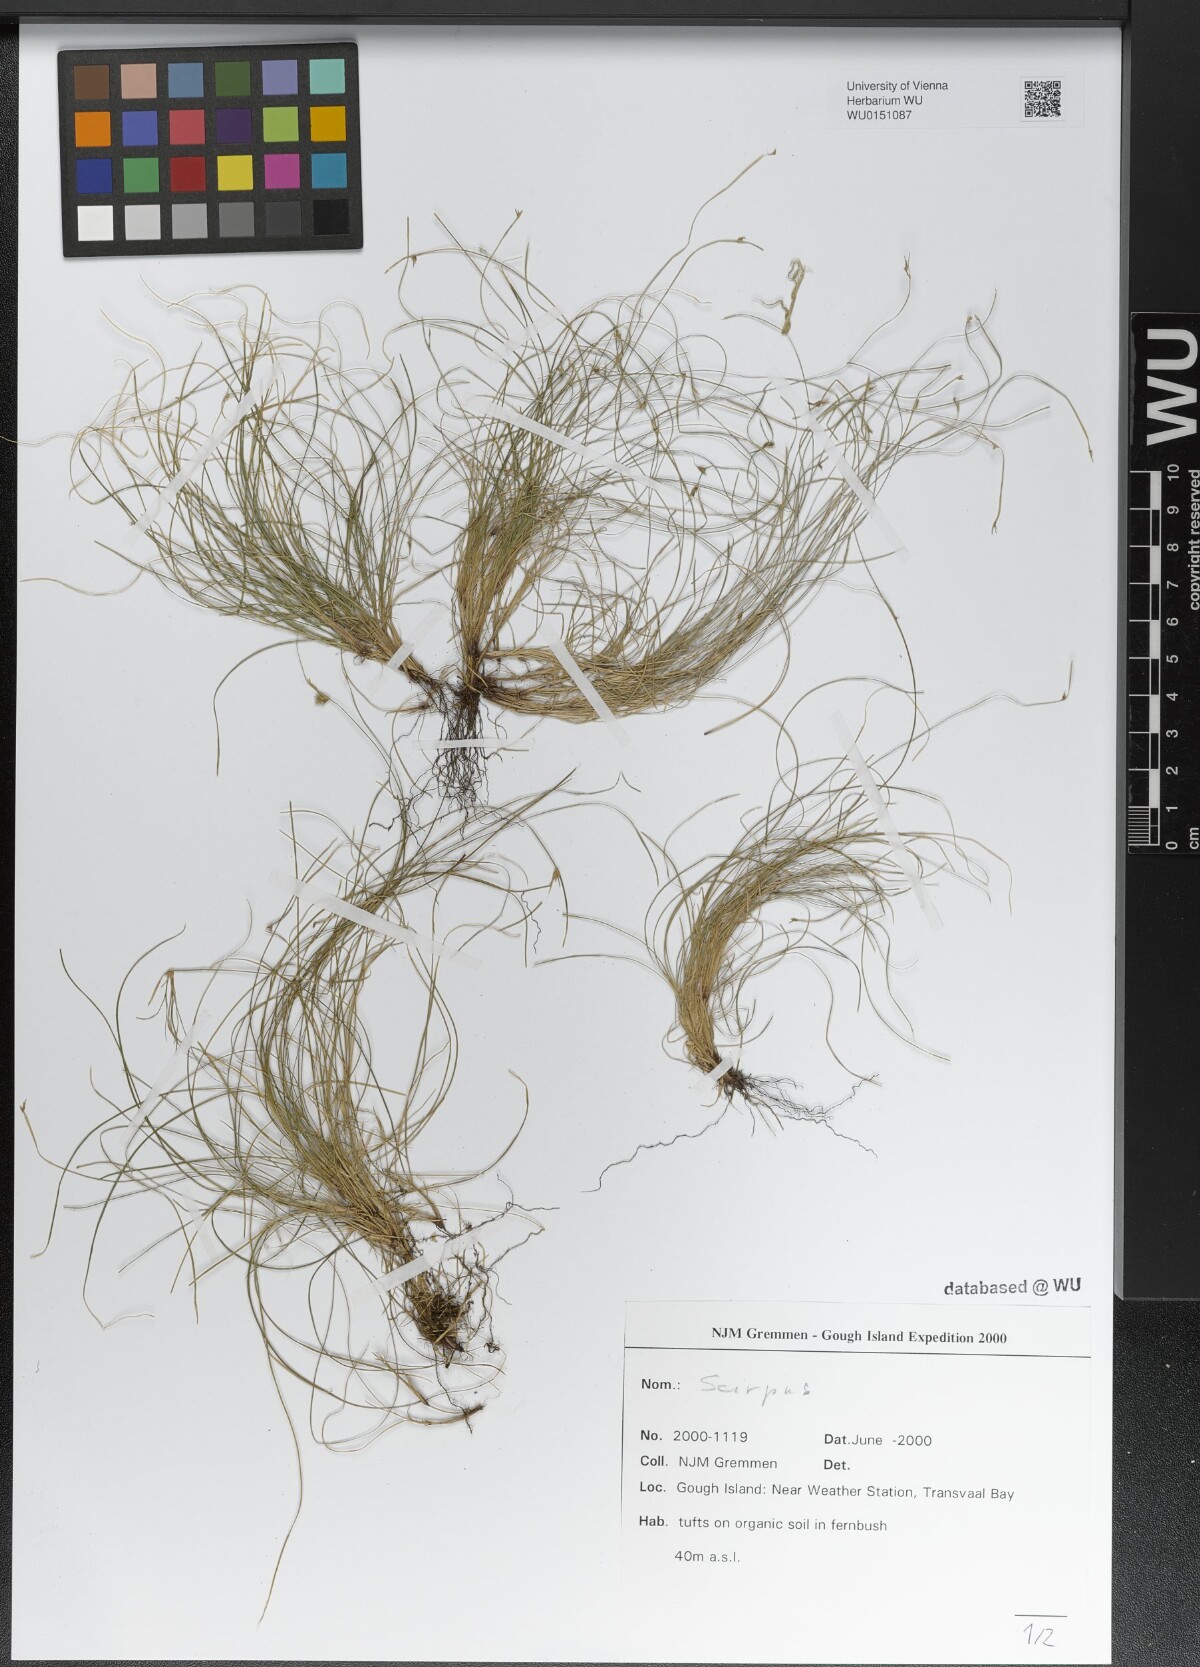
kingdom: Plantae
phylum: Tracheophyta
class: Liliopsida
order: Poales
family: Cyperaceae
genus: Scirpus
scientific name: Scirpus
